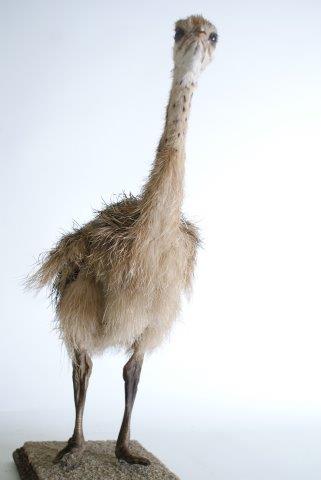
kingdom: Animalia
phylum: Chordata
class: Aves
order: Struthioniformes
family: Struthionidae
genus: Struthio
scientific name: Struthio camelus
